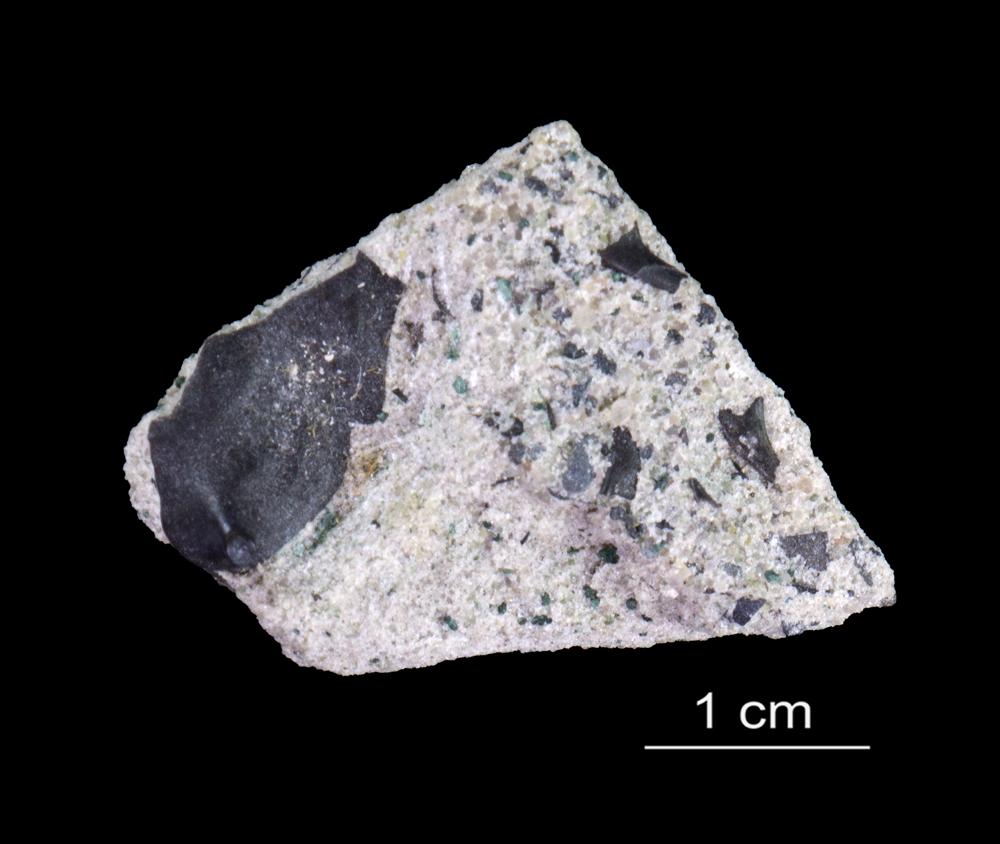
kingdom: Animalia
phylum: Arthropoda
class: Trilobita
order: Redlichiida
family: Holmiidae
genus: Schmidtiellus
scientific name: Schmidtiellus Olenellus mickwitzi
